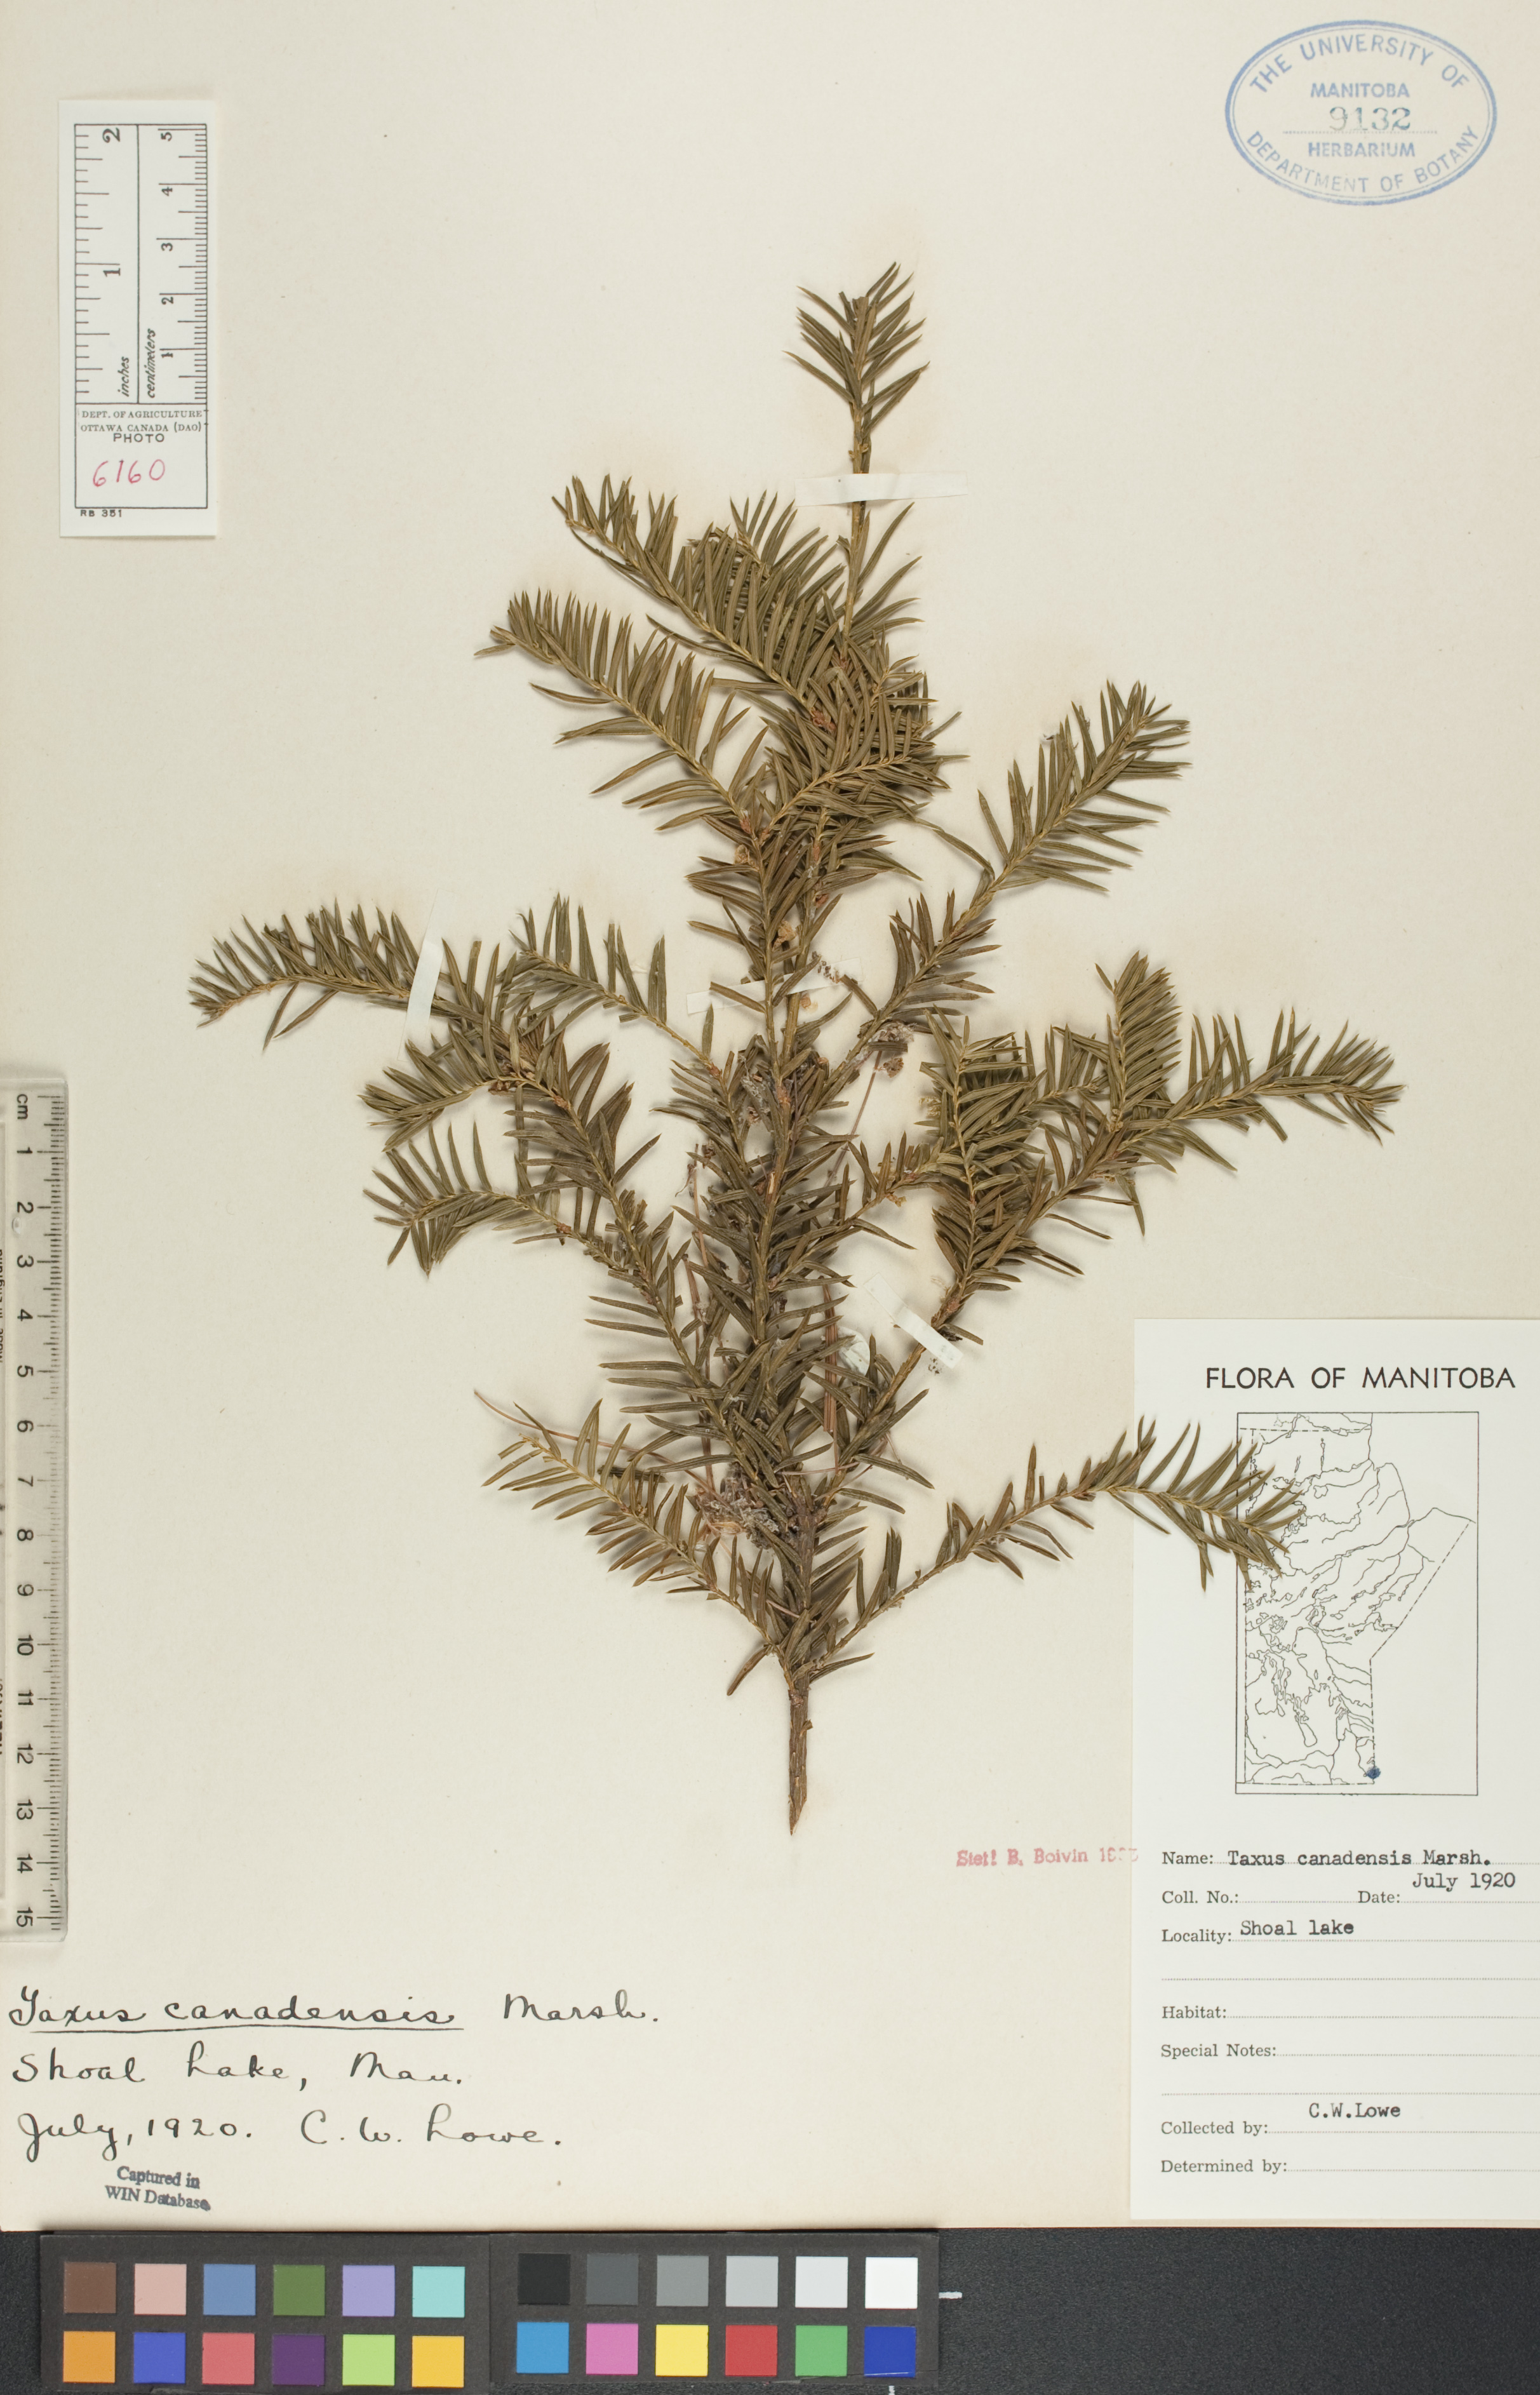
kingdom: Plantae
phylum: Tracheophyta
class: Pinopsida
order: Pinales
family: Taxaceae
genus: Taxus
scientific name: Taxus canadensis
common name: American yew
